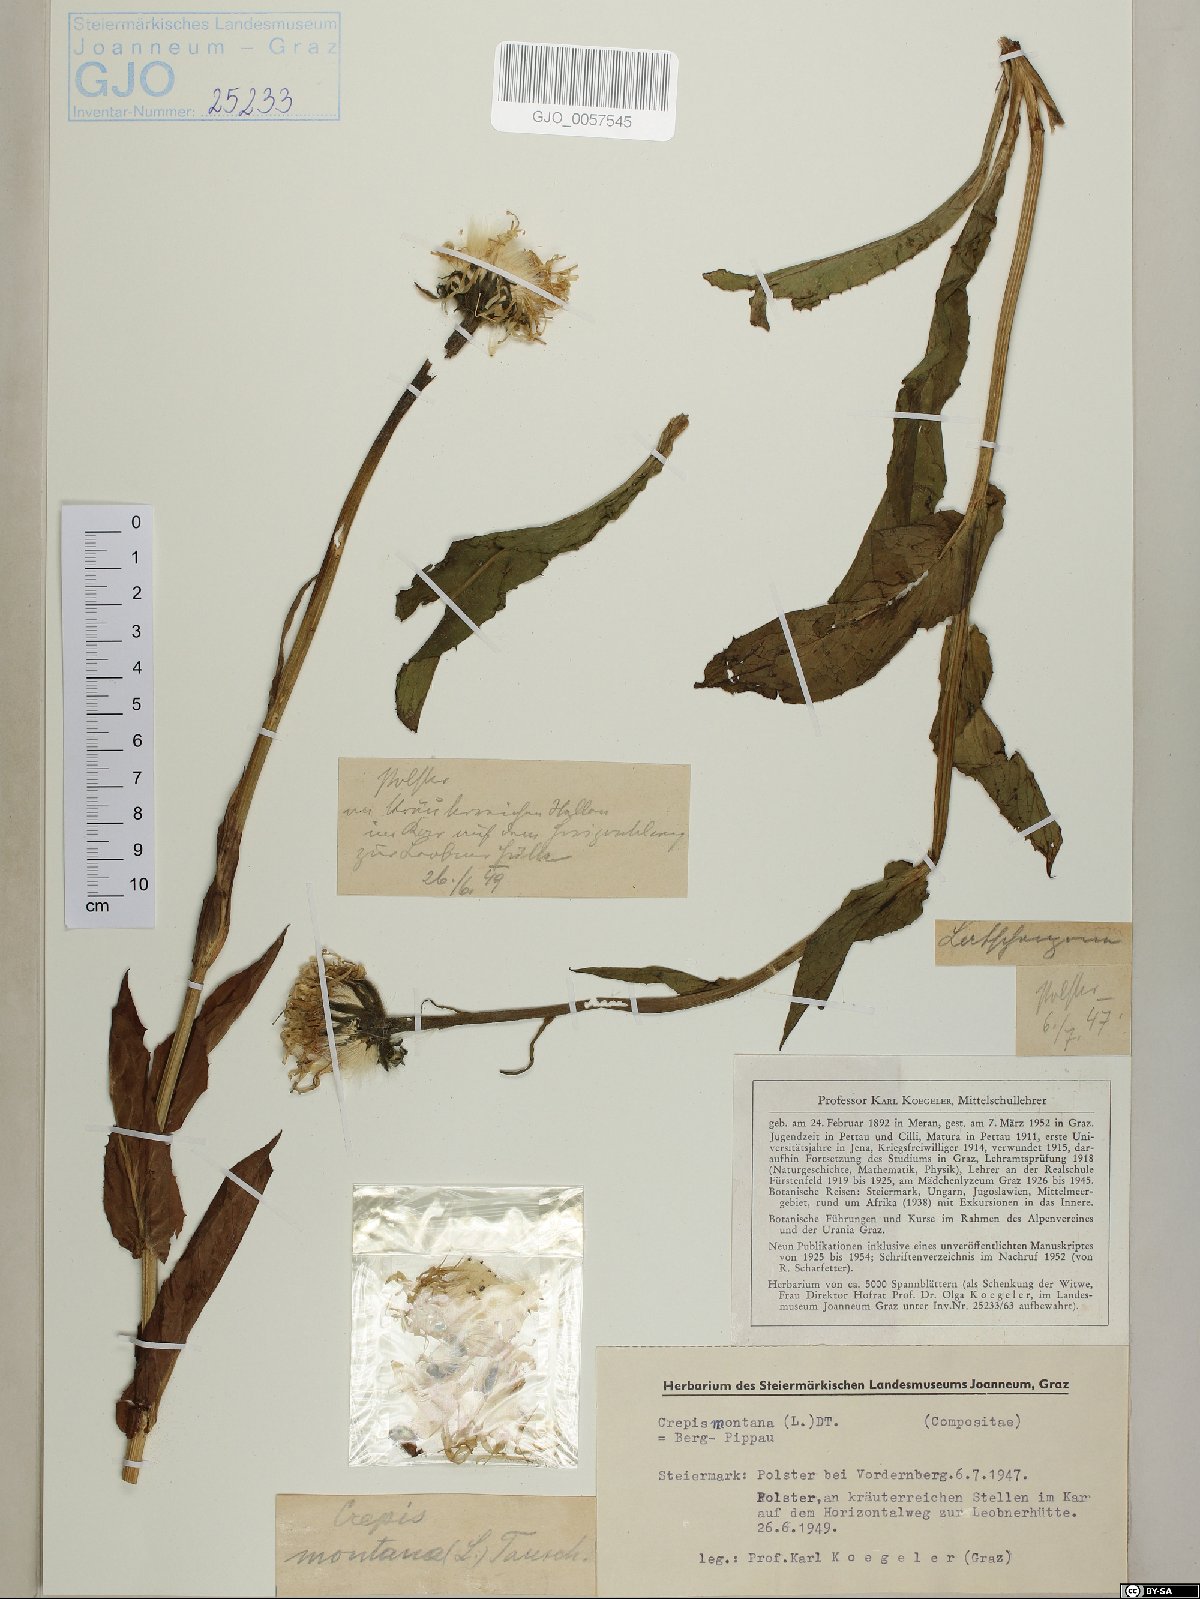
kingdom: Plantae
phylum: Tracheophyta
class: Magnoliopsida
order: Asterales
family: Asteraceae
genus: Crepis
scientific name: Crepis pontana
